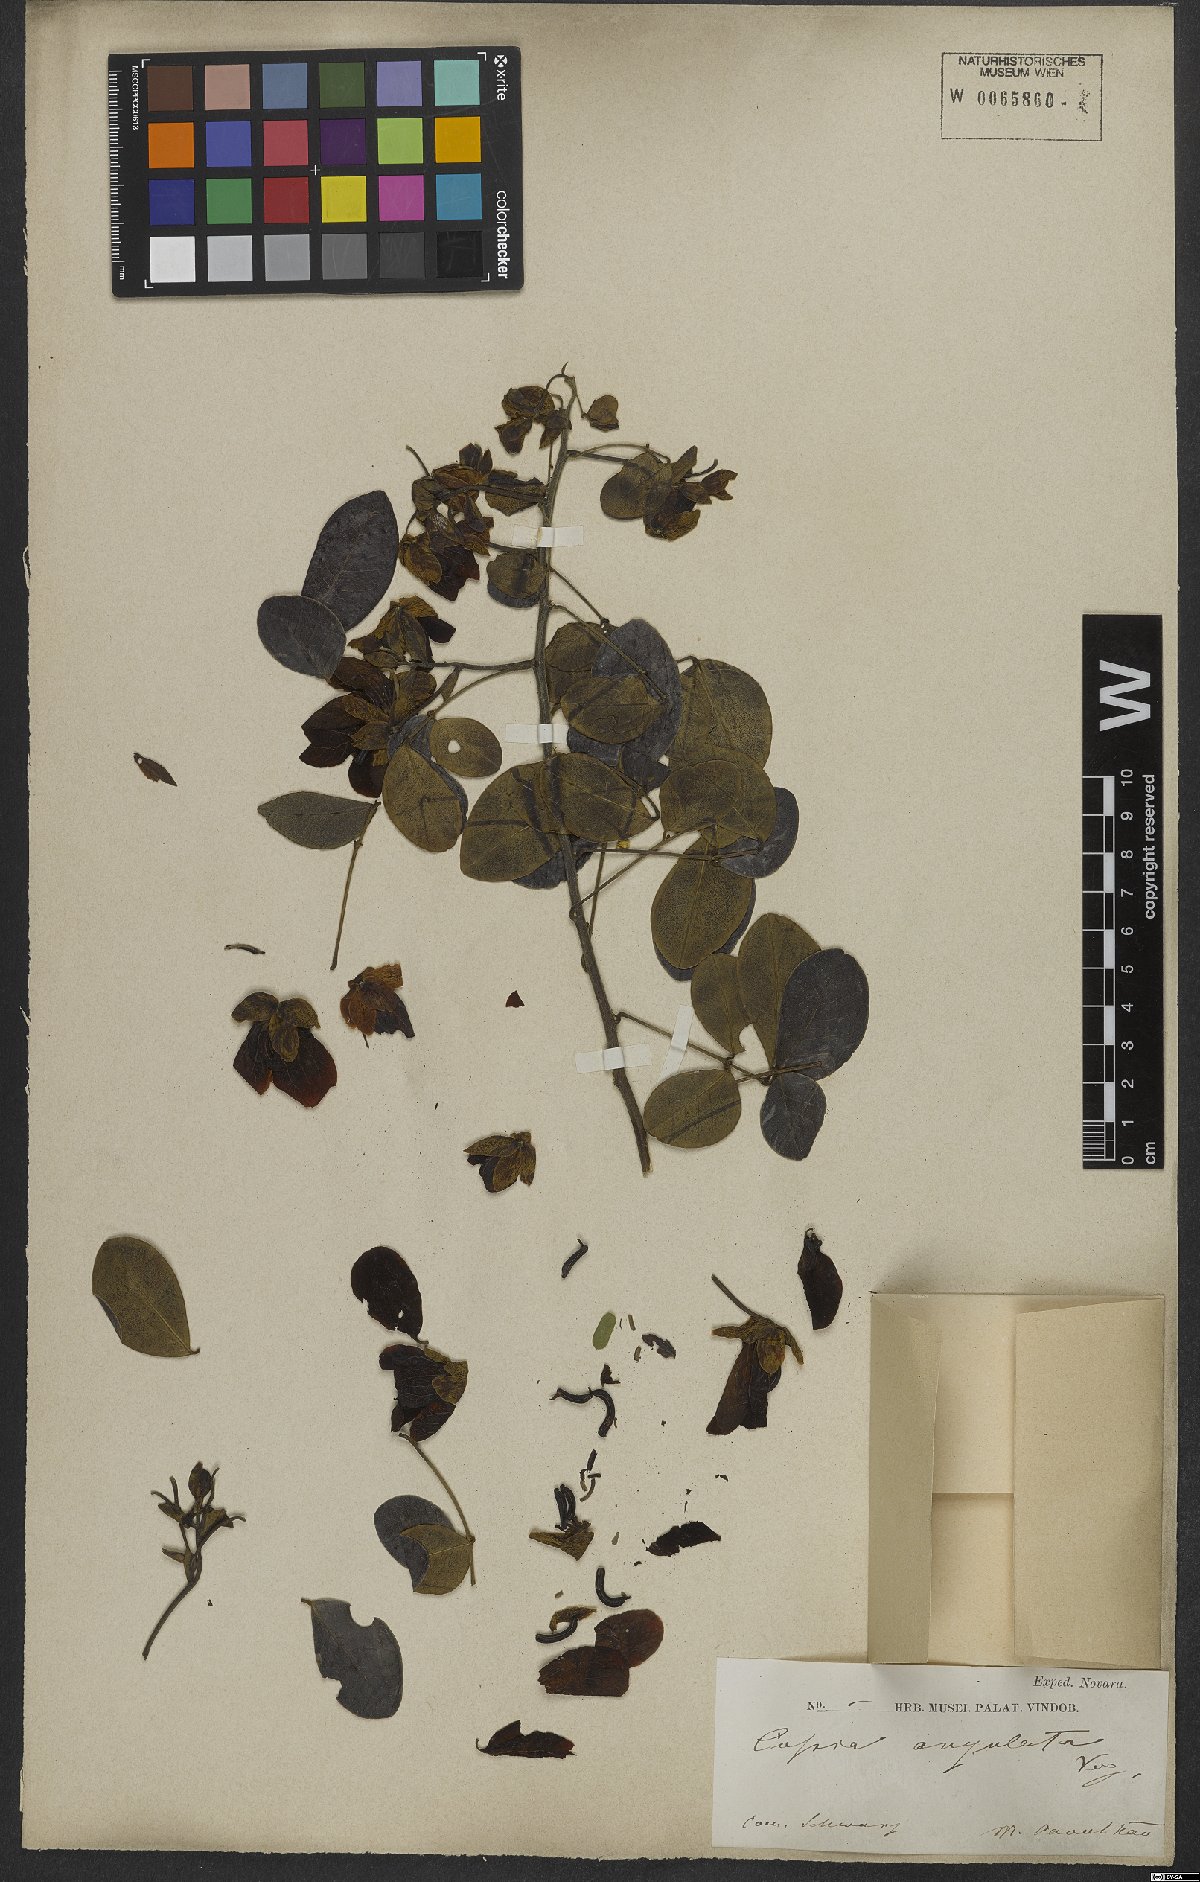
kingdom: Plantae
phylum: Tracheophyta
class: Magnoliopsida
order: Fabales
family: Fabaceae
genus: Senna
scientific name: Senna angulata
